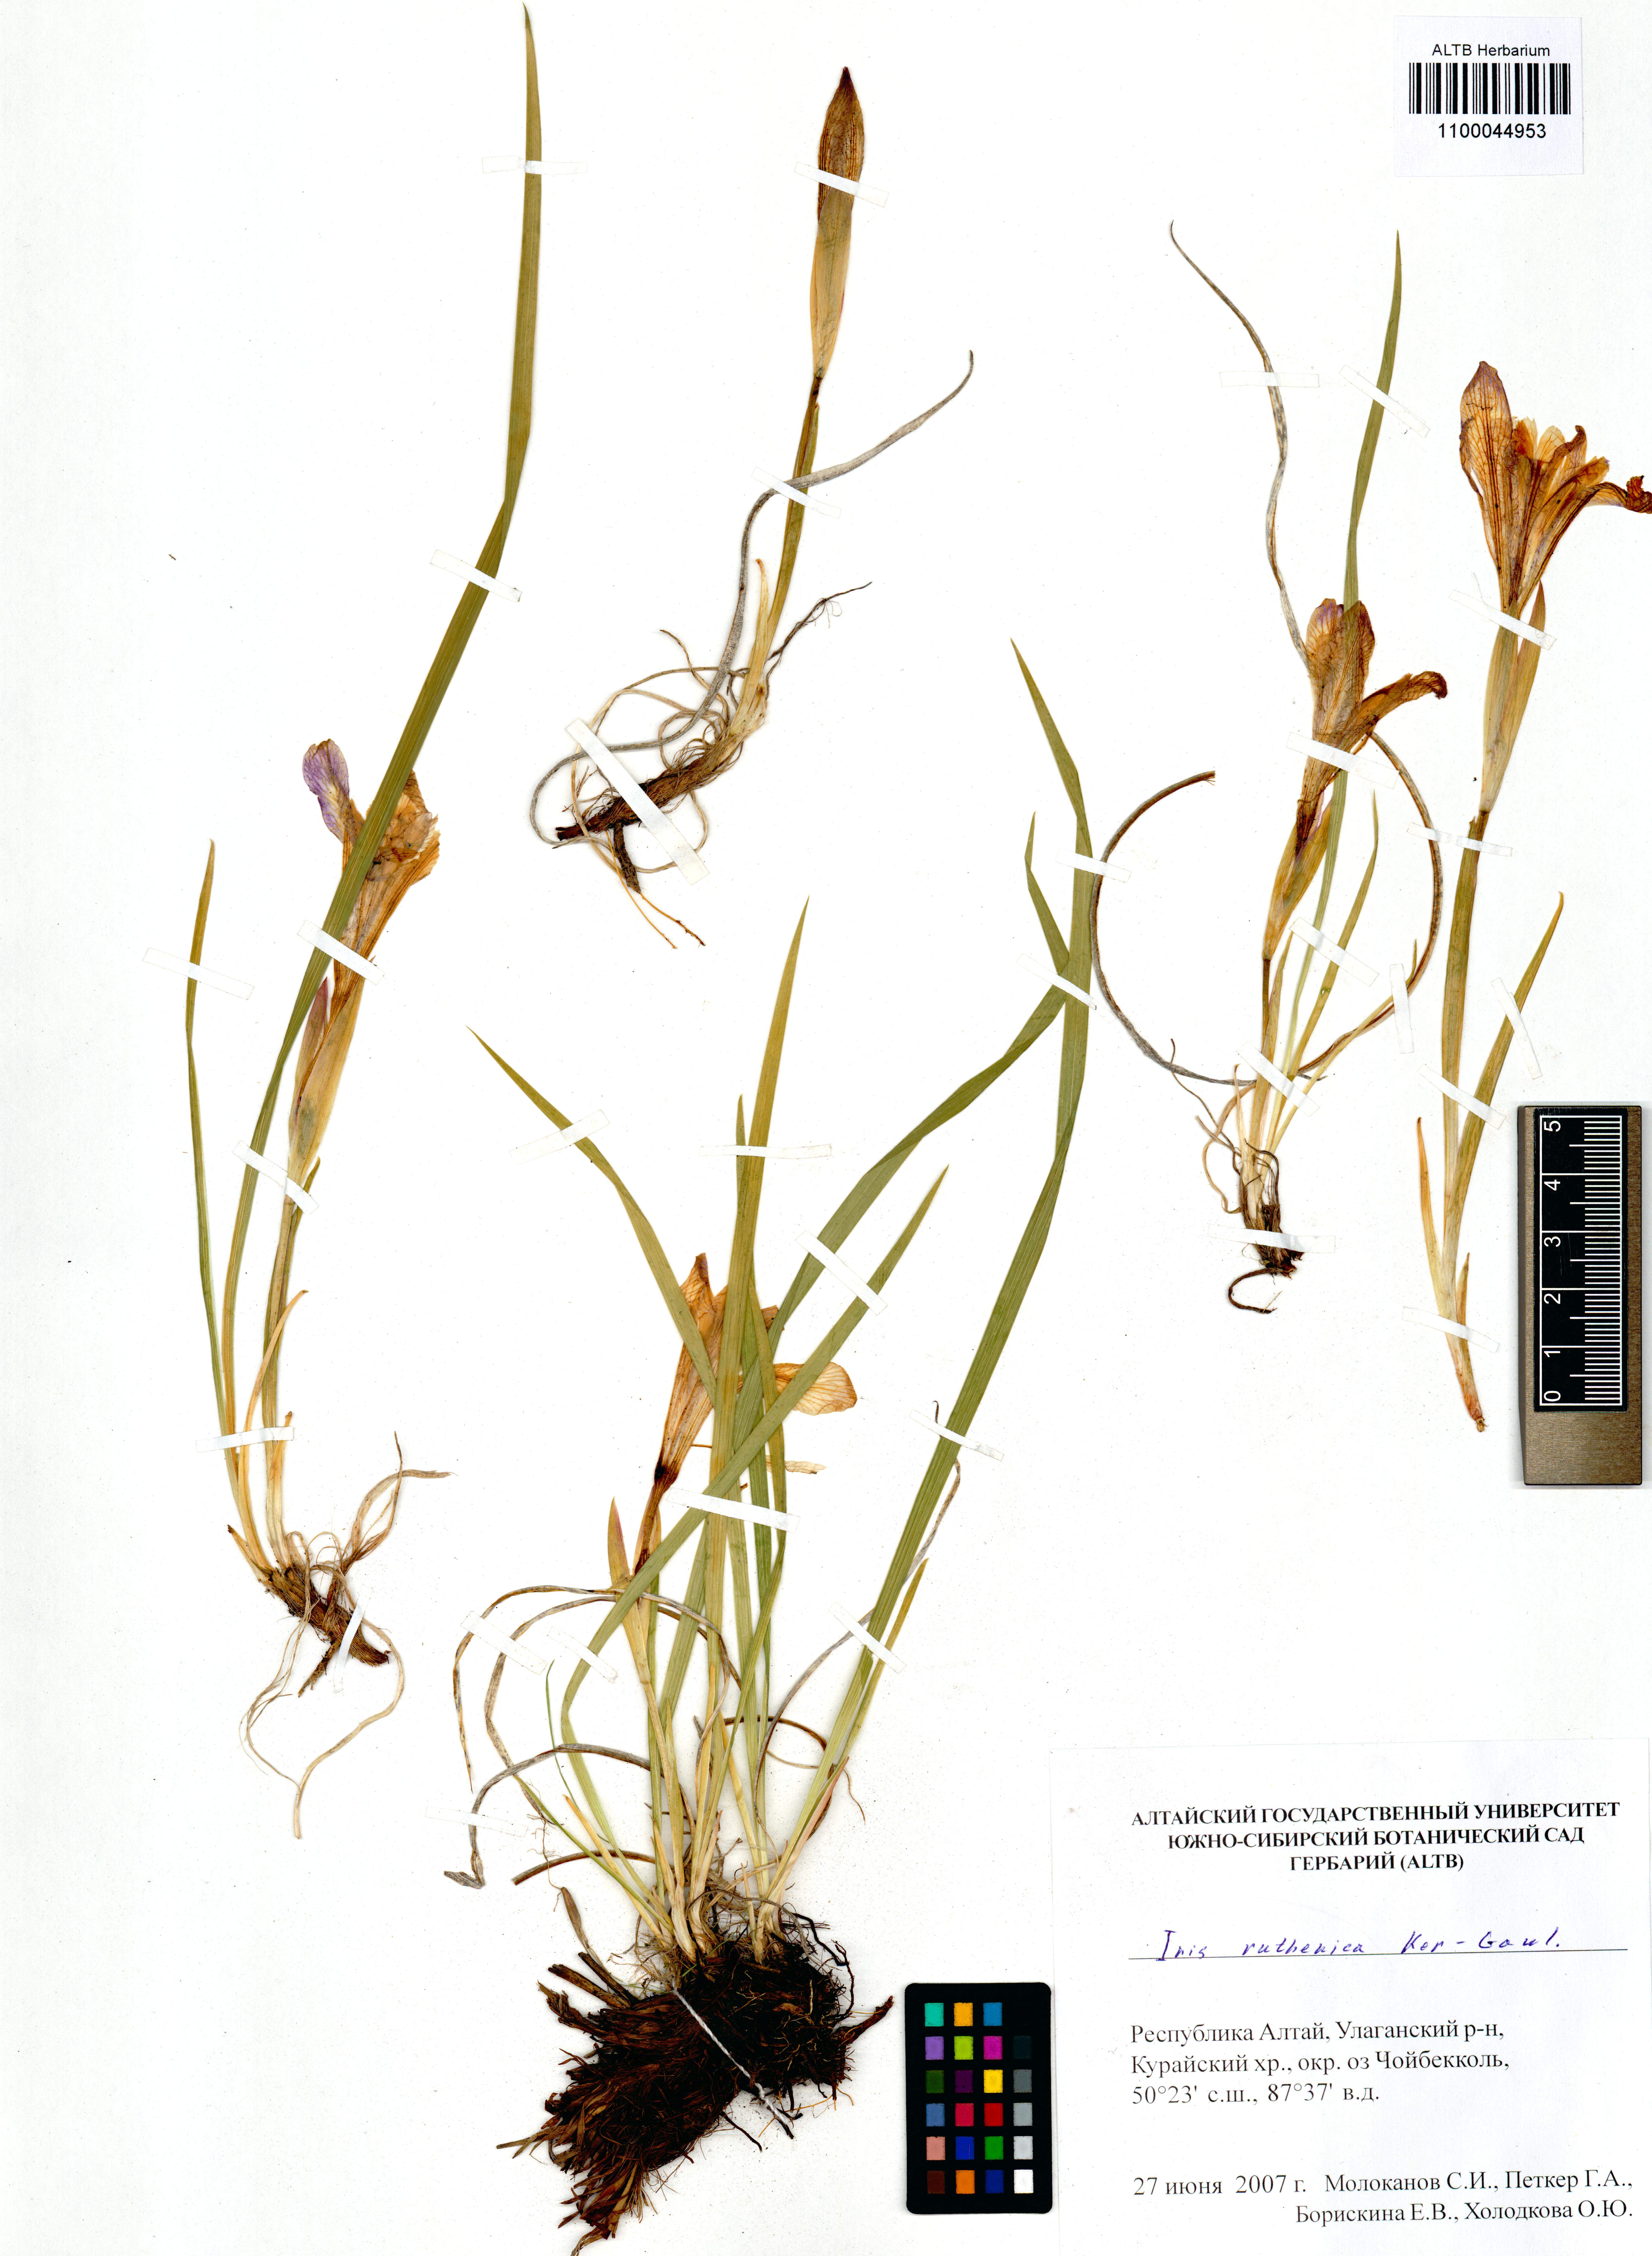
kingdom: Plantae
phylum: Tracheophyta
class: Liliopsida
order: Asparagales
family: Iridaceae
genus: Iris
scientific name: Iris ruthenica
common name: Purple-bract iris
